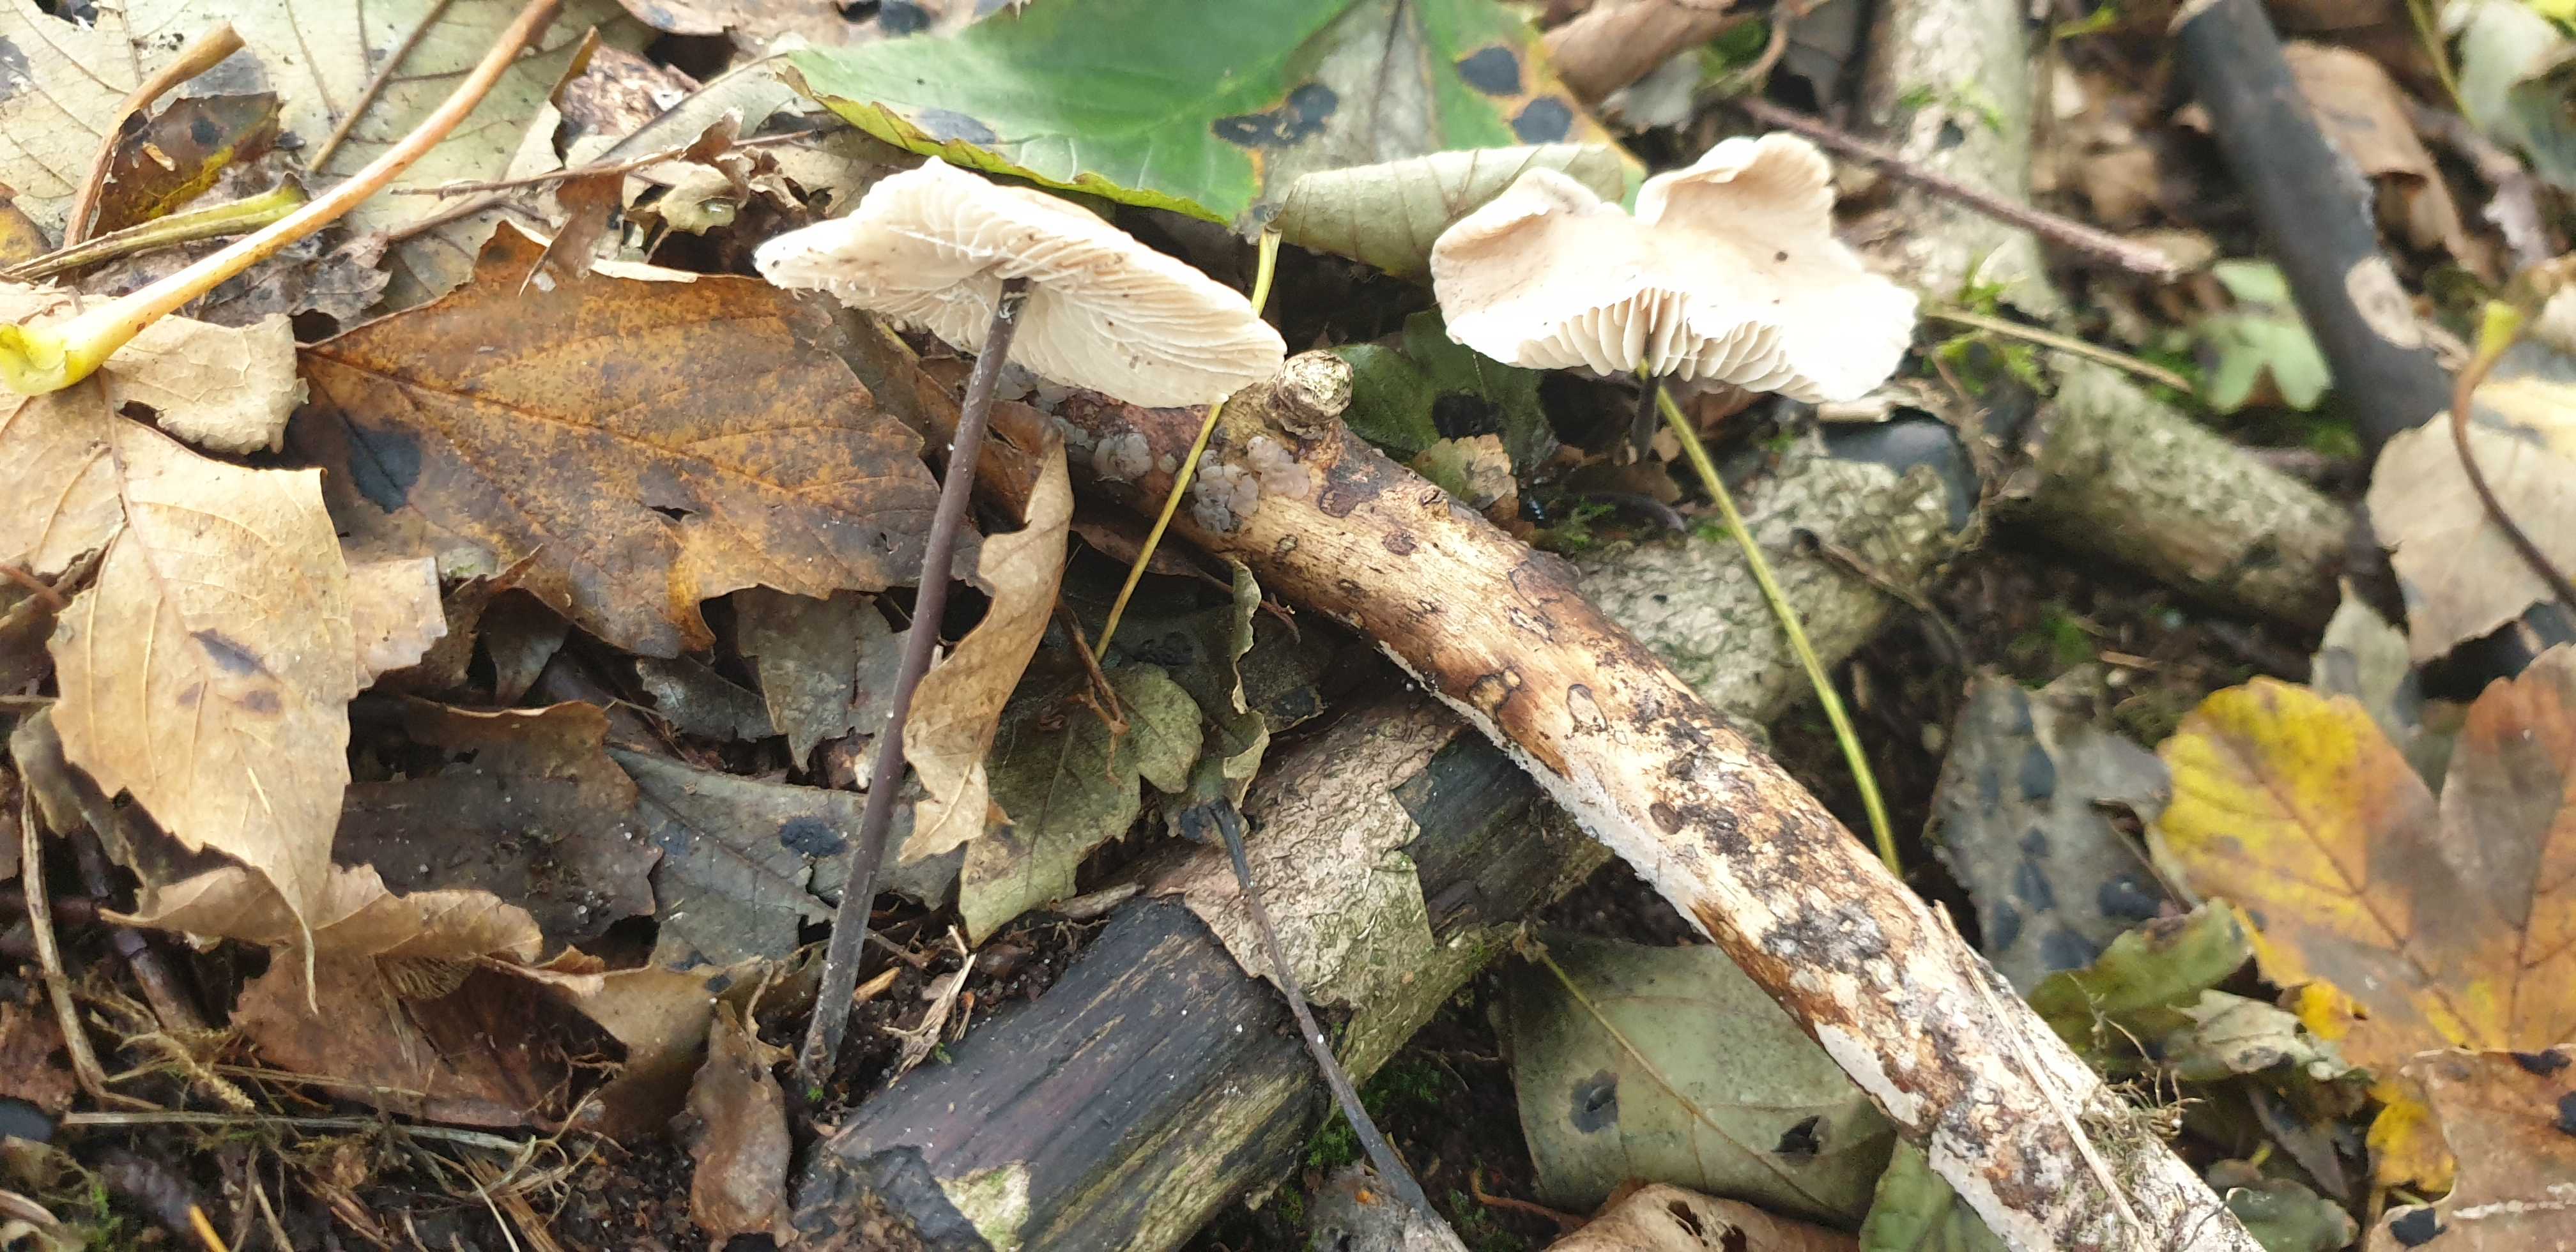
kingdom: Fungi
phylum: Basidiomycota
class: Agaricomycetes
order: Agaricales
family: Omphalotaceae
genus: Mycetinis
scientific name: Mycetinis alliaceus
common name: stor løghat
